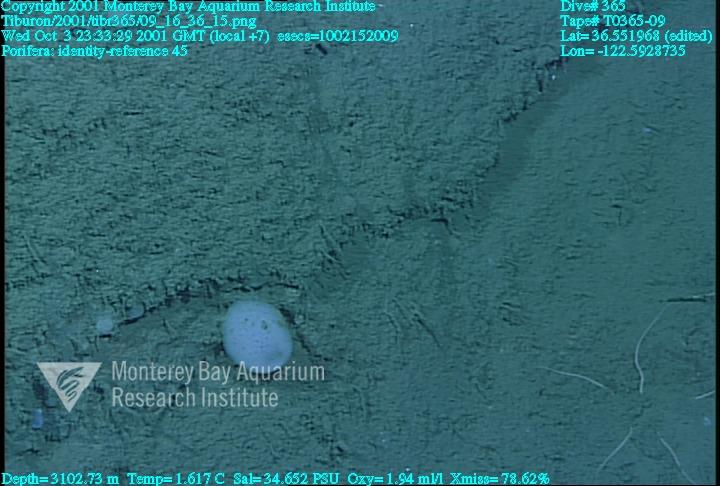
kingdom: Animalia
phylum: Porifera
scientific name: Porifera
